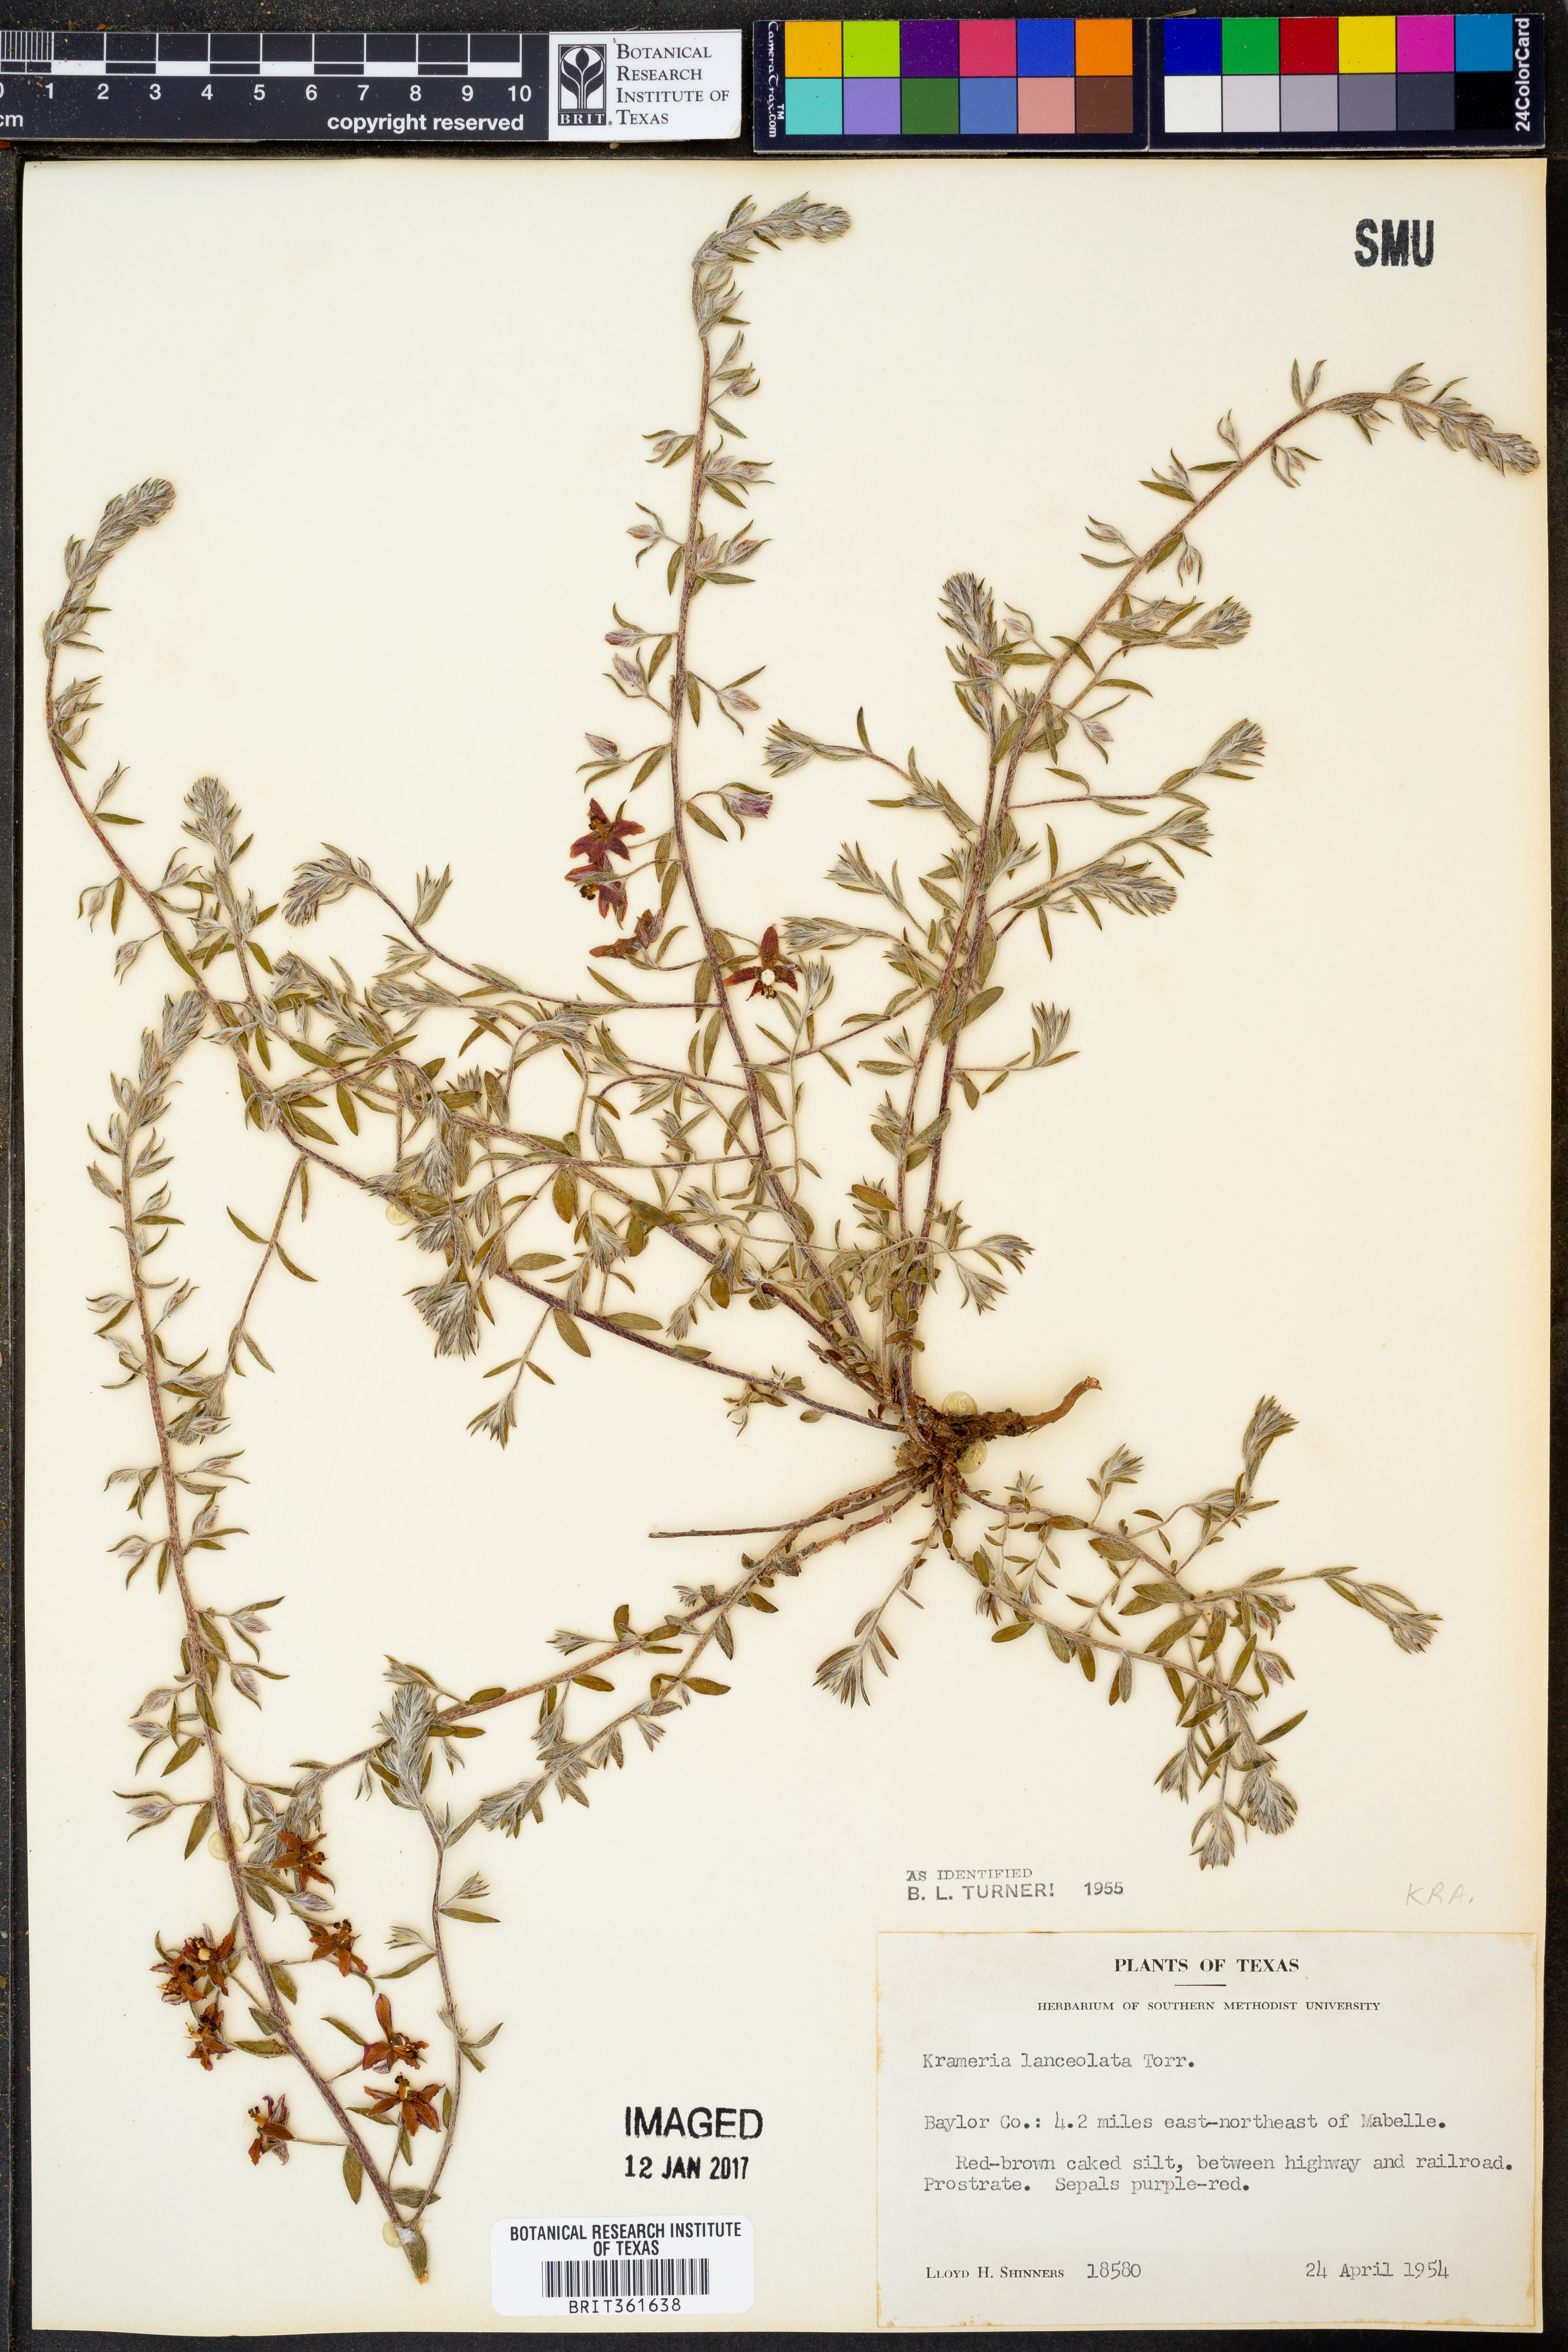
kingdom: Plantae
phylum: Tracheophyta
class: Magnoliopsida
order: Zygophyllales
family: Krameriaceae
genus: Krameria
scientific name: Krameria lanceolata
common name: Ratany
